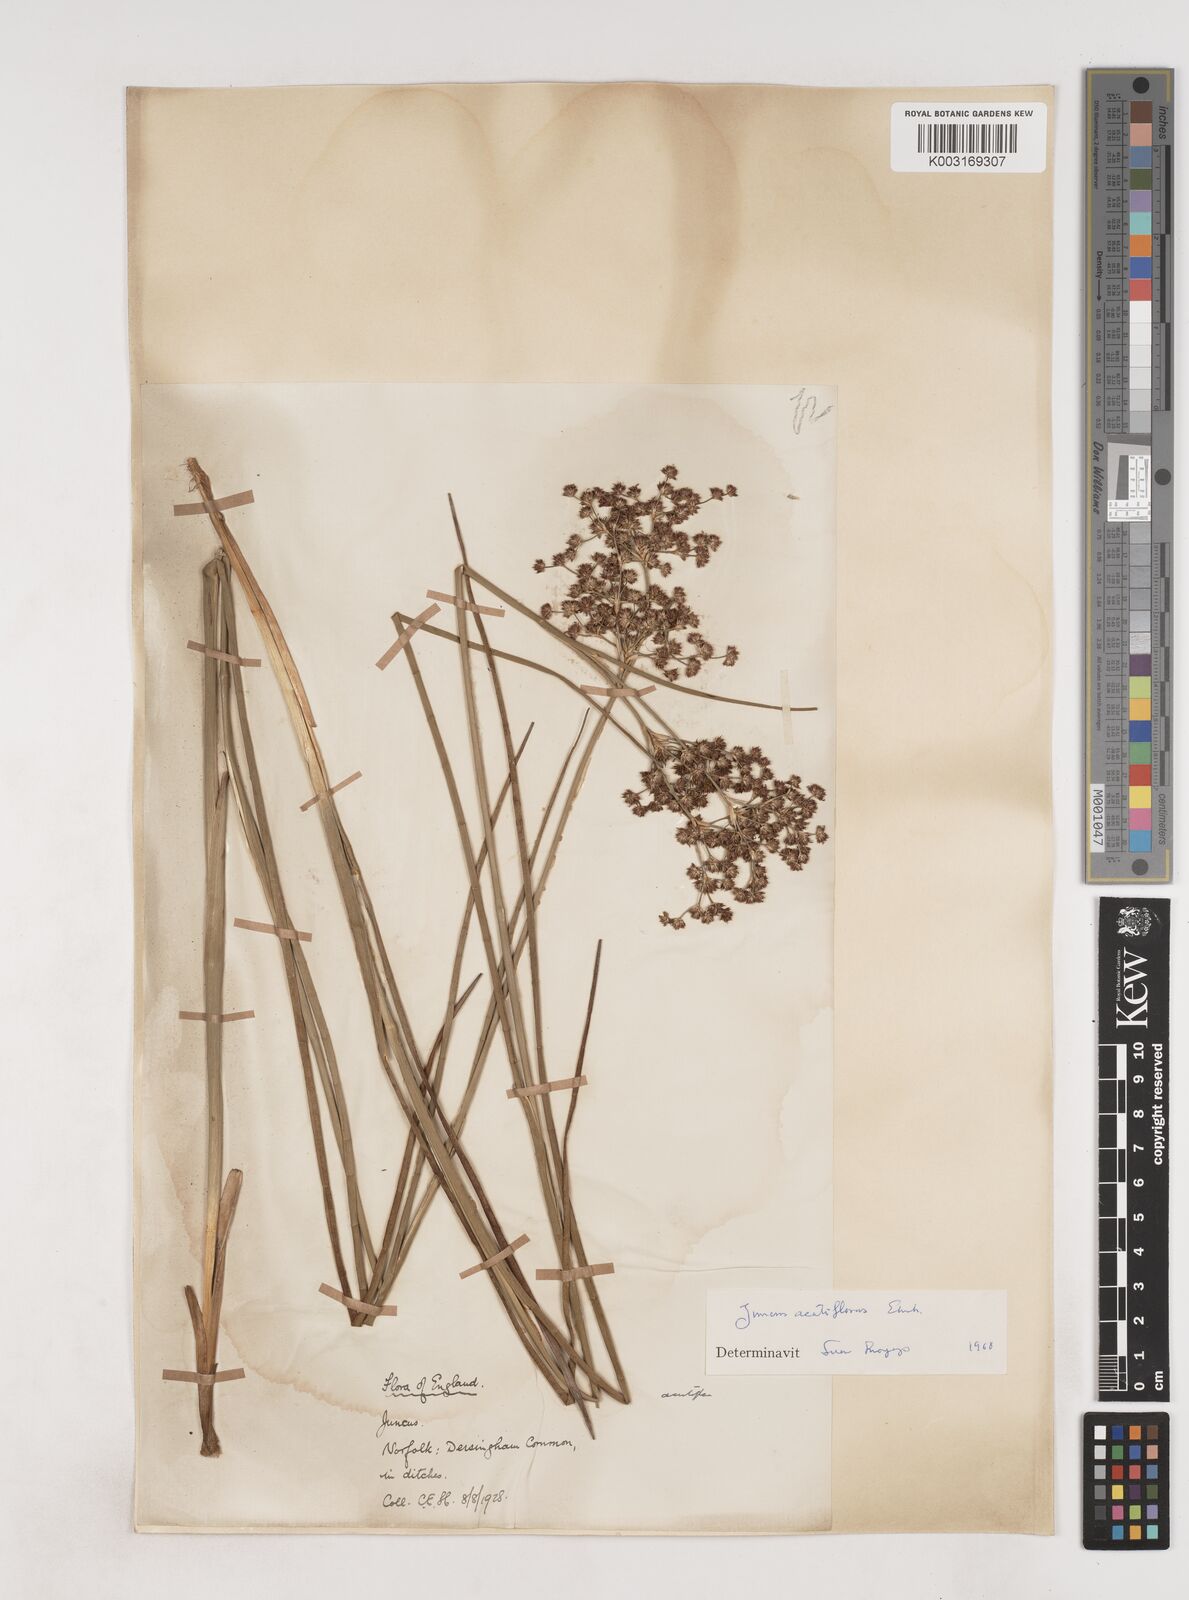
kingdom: Plantae
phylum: Tracheophyta
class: Liliopsida
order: Poales
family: Juncaceae
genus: Juncus
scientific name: Juncus acutiflorus
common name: Sharp-flowered rush
